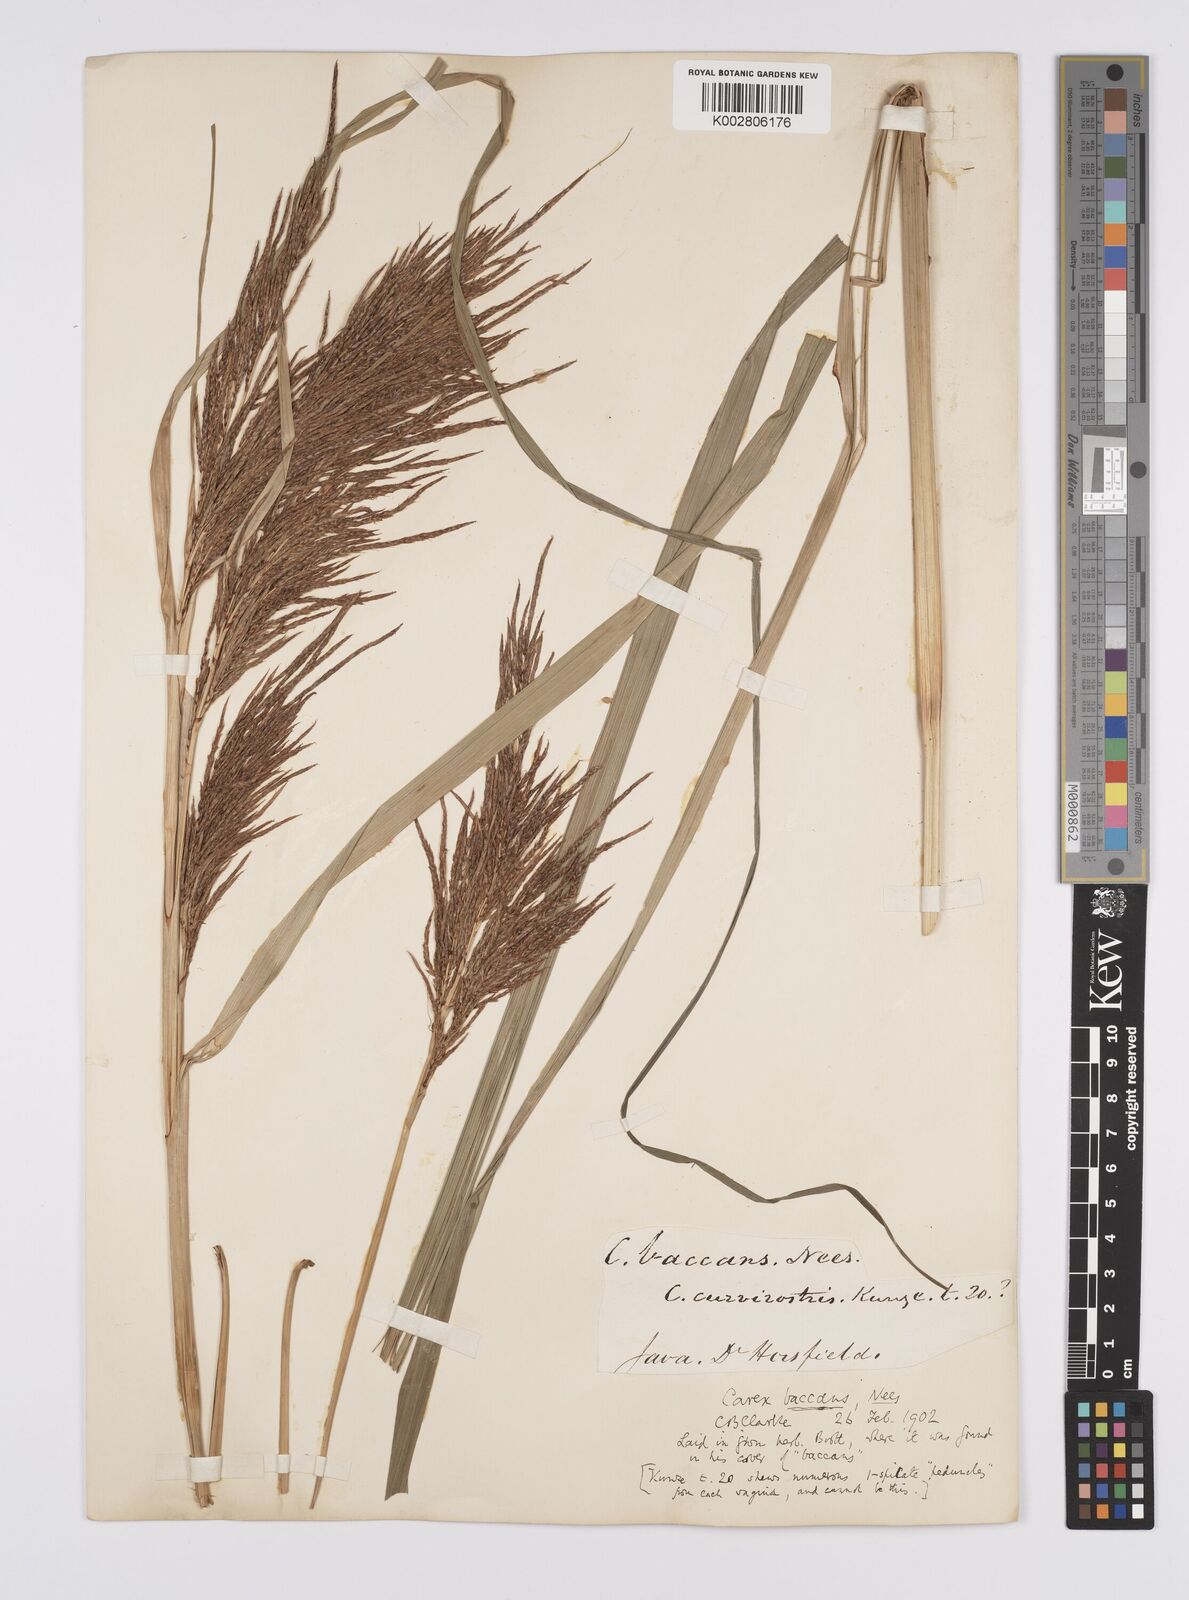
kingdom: Plantae
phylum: Tracheophyta
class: Liliopsida
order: Poales
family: Cyperaceae
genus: Carex
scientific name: Carex baccans
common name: Crimson seeded sedge
